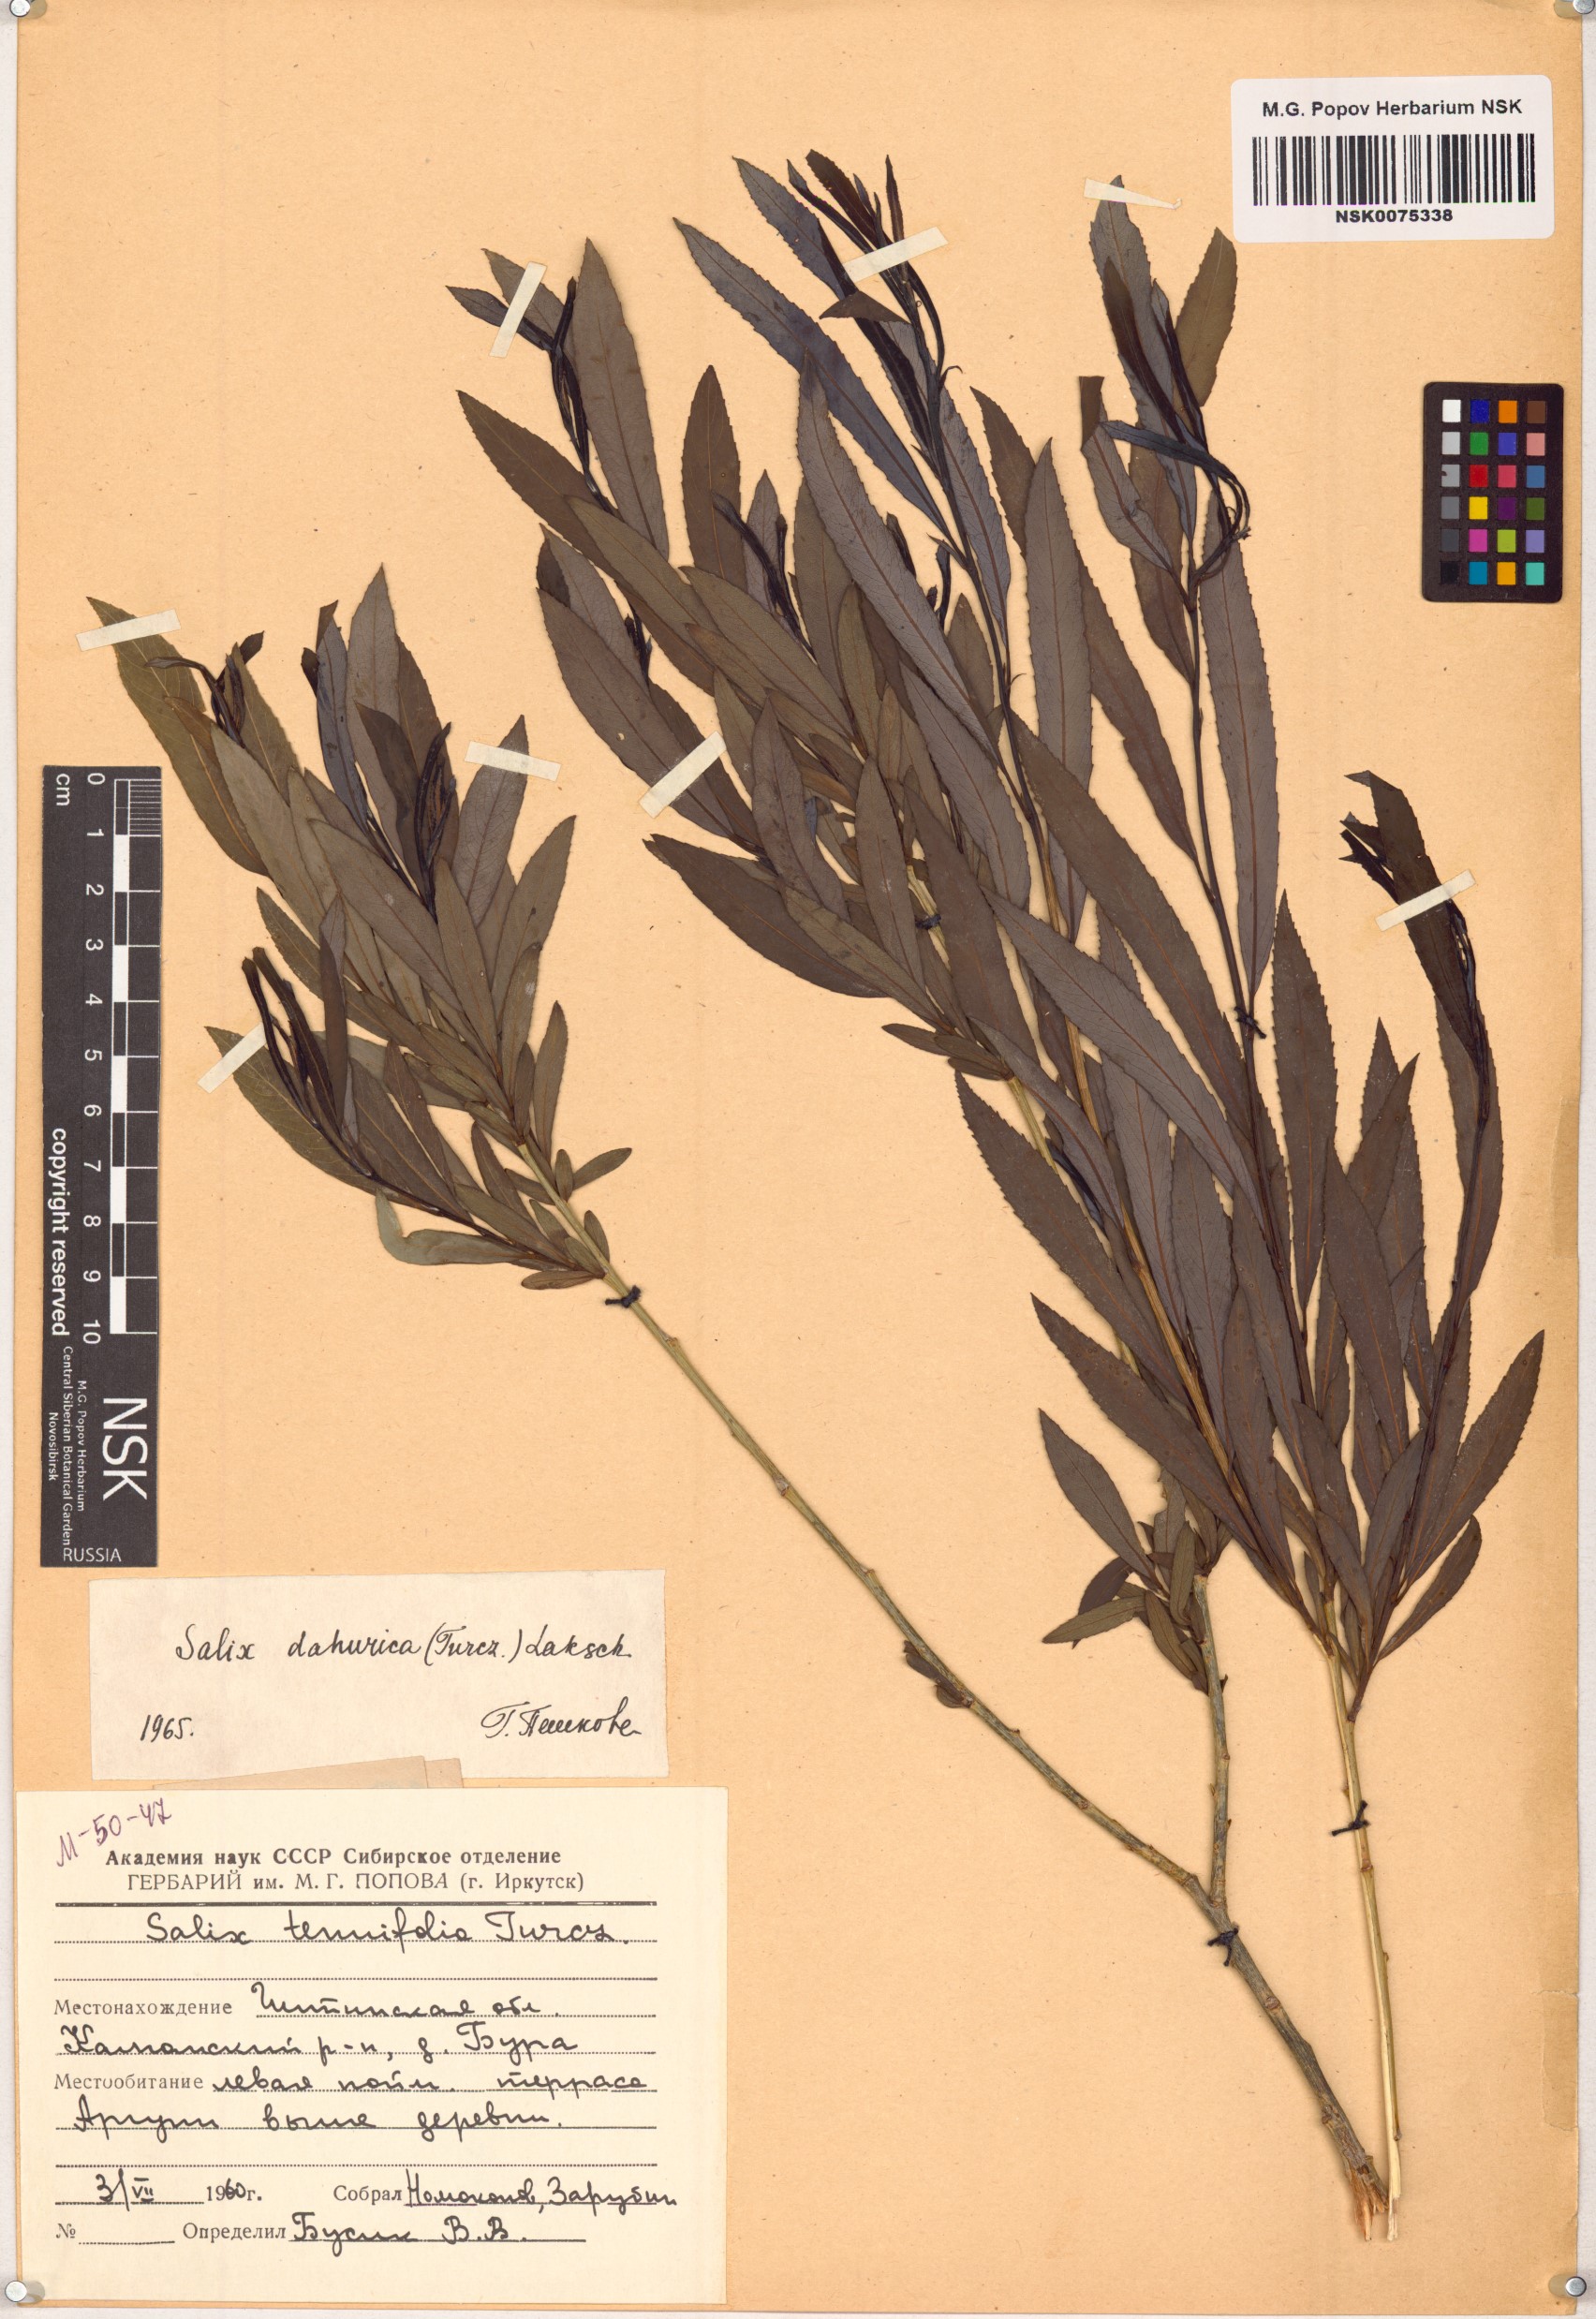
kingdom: Plantae
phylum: Tracheophyta
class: Magnoliopsida
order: Malpighiales
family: Salicaceae
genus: Salix
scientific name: Salix
